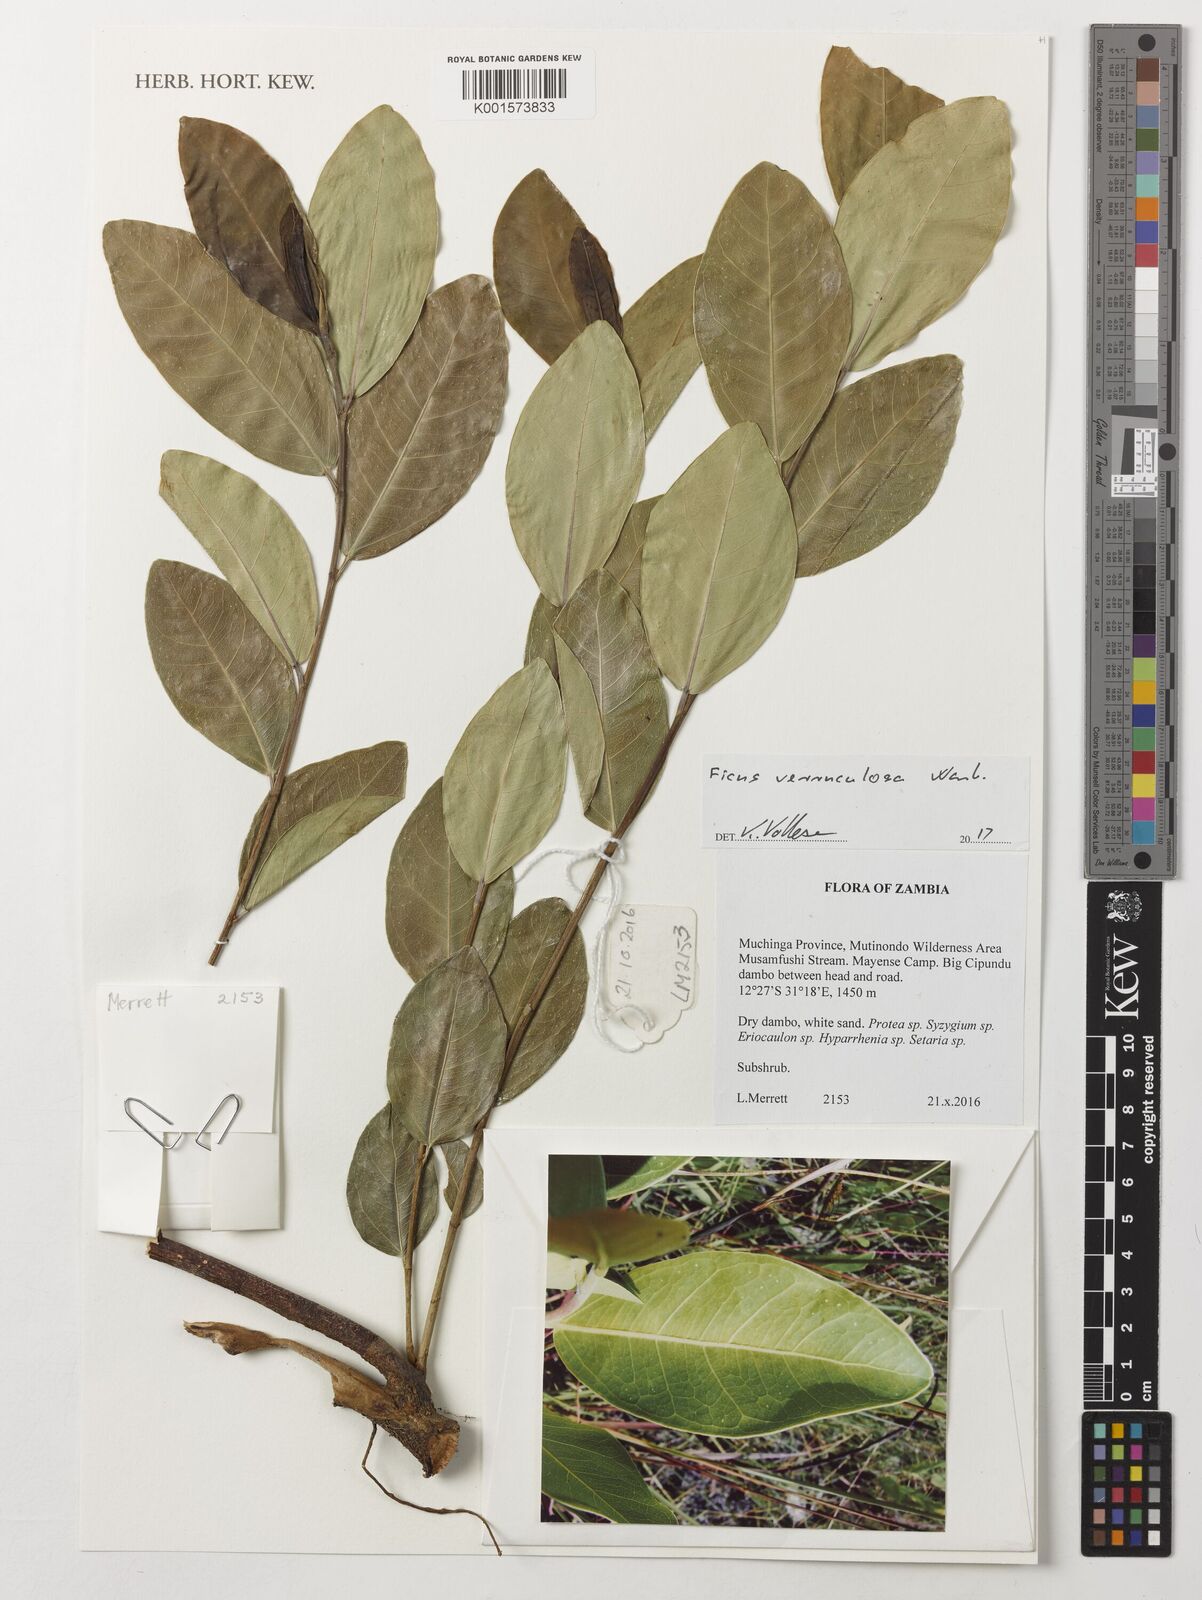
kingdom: Plantae
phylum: Tracheophyta
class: Magnoliopsida
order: Rosales
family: Moraceae
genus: Ficus
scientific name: Ficus verruculosa
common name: Water fig
